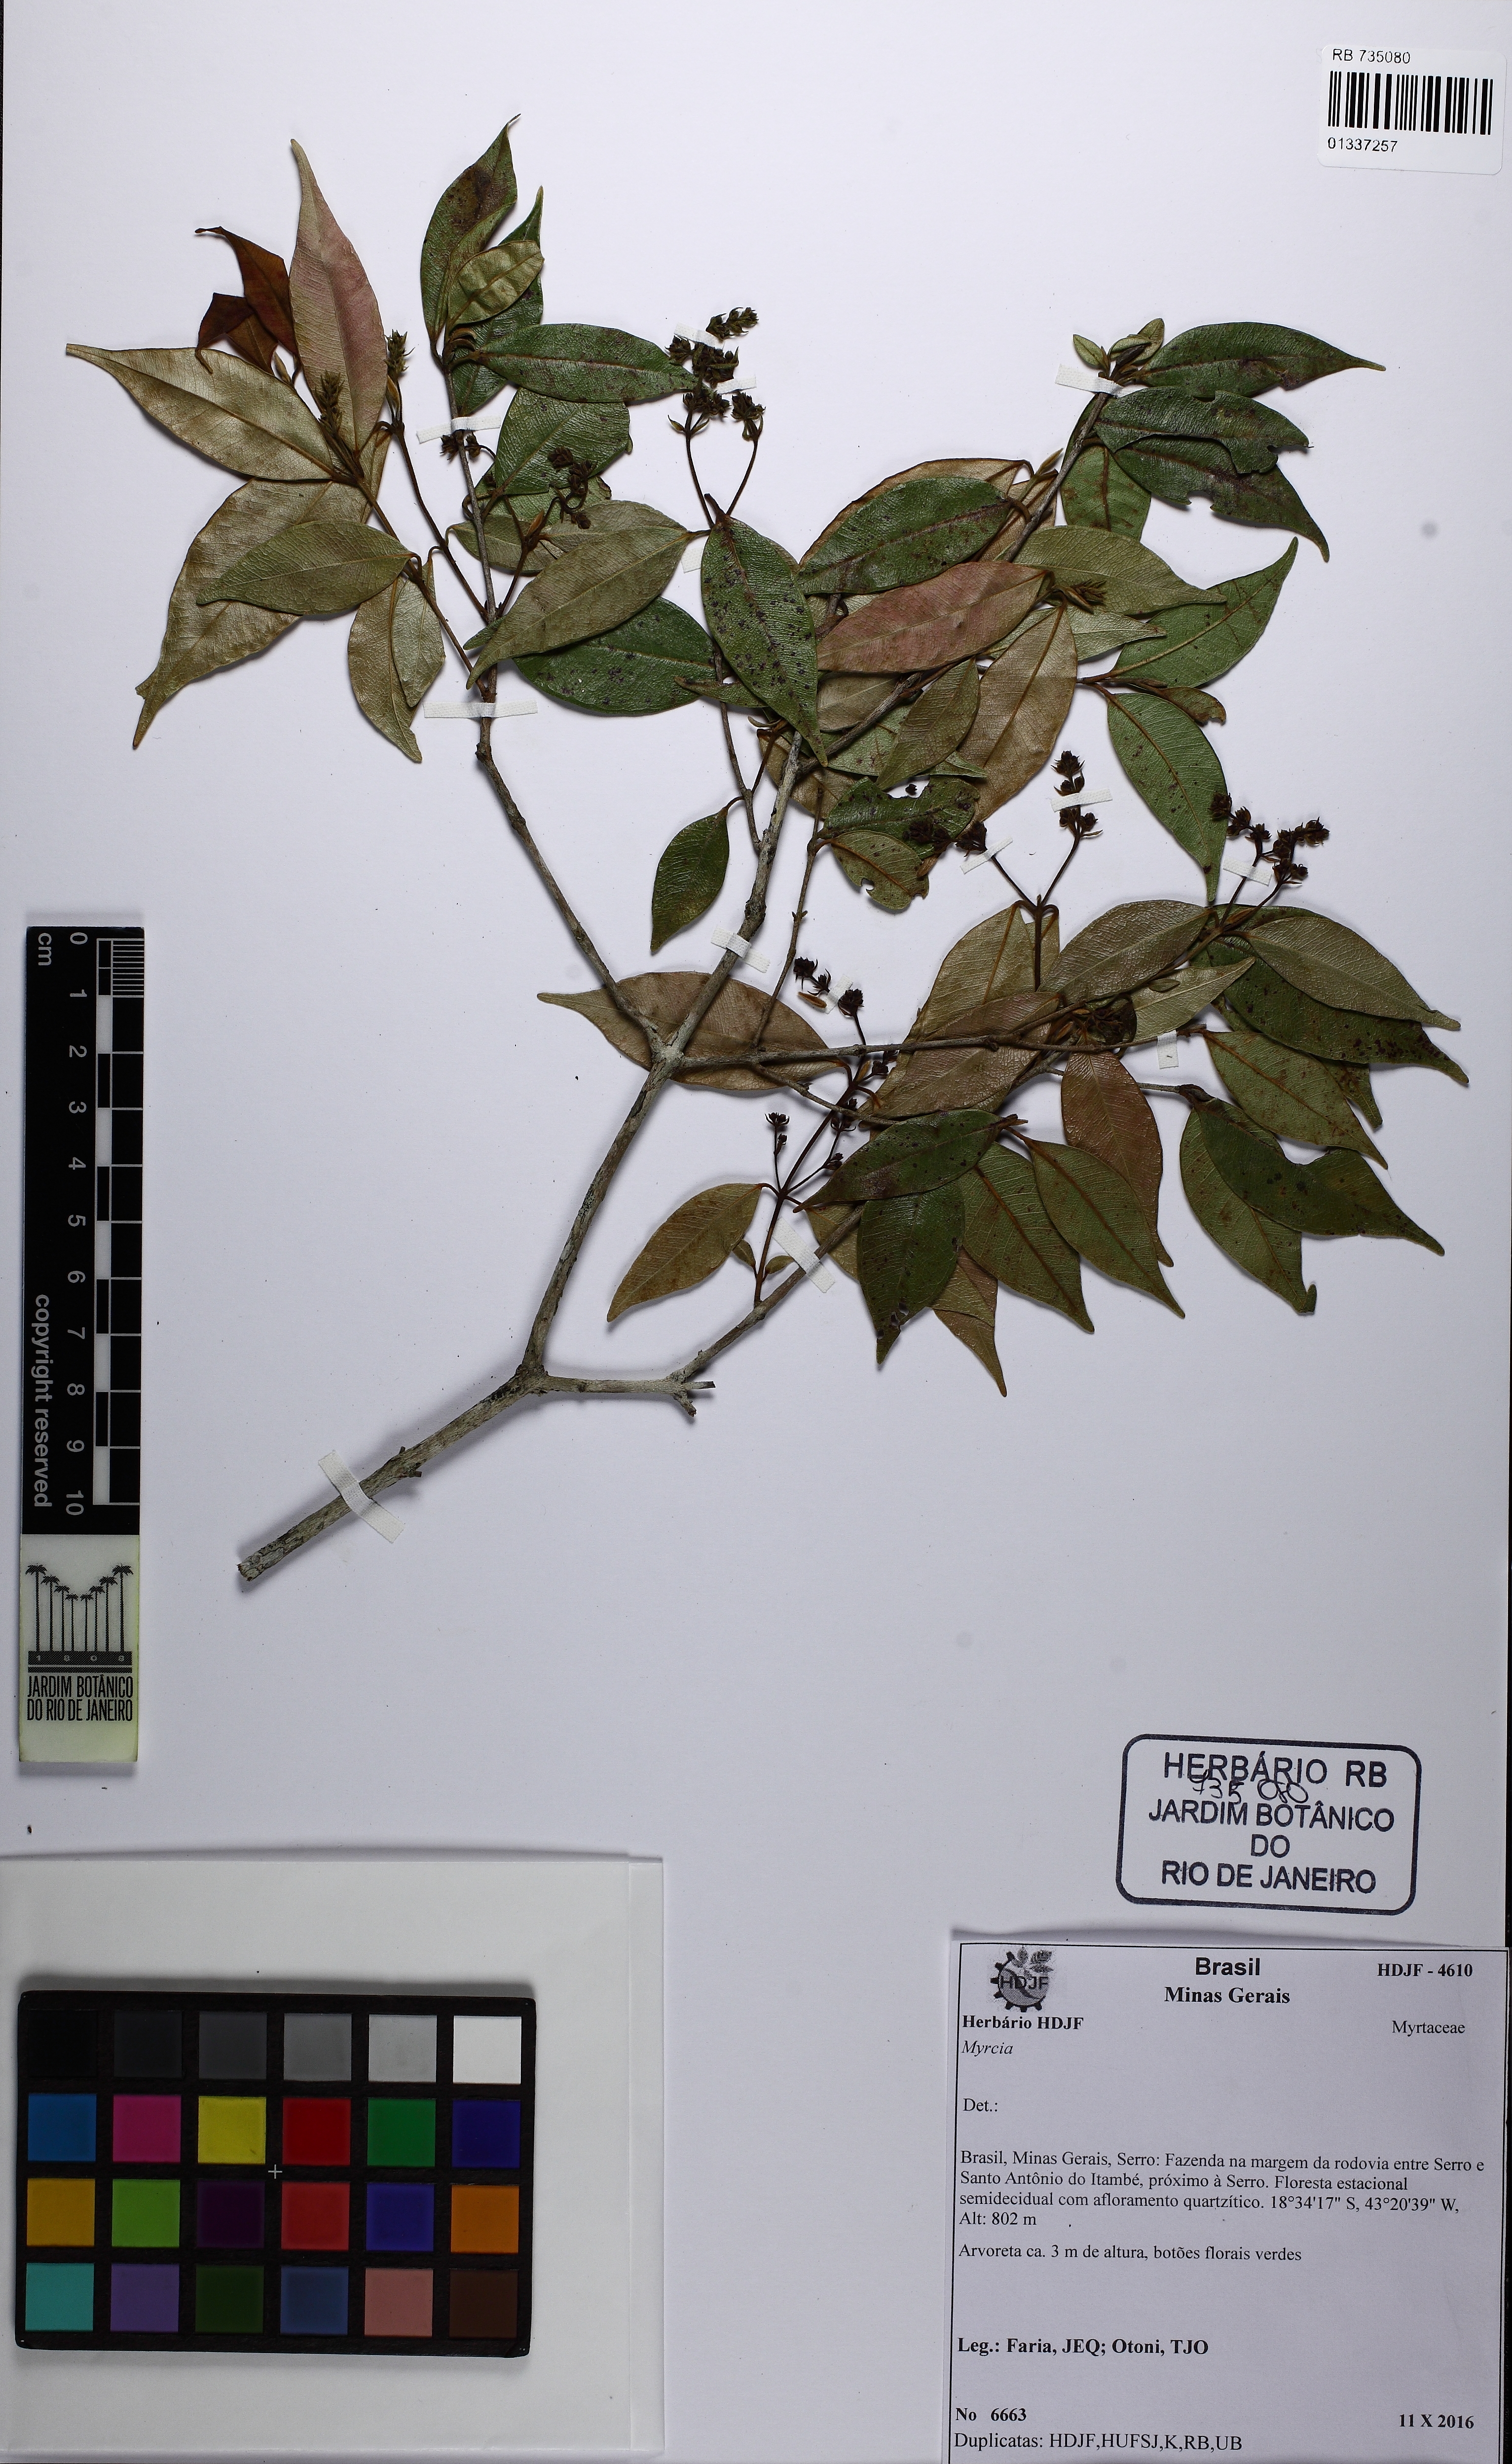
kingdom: Plantae
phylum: Tracheophyta
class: Magnoliopsida
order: Myrtales
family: Myrtaceae
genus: Myrcia
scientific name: Myrcia splendens
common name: Surinam cherry
